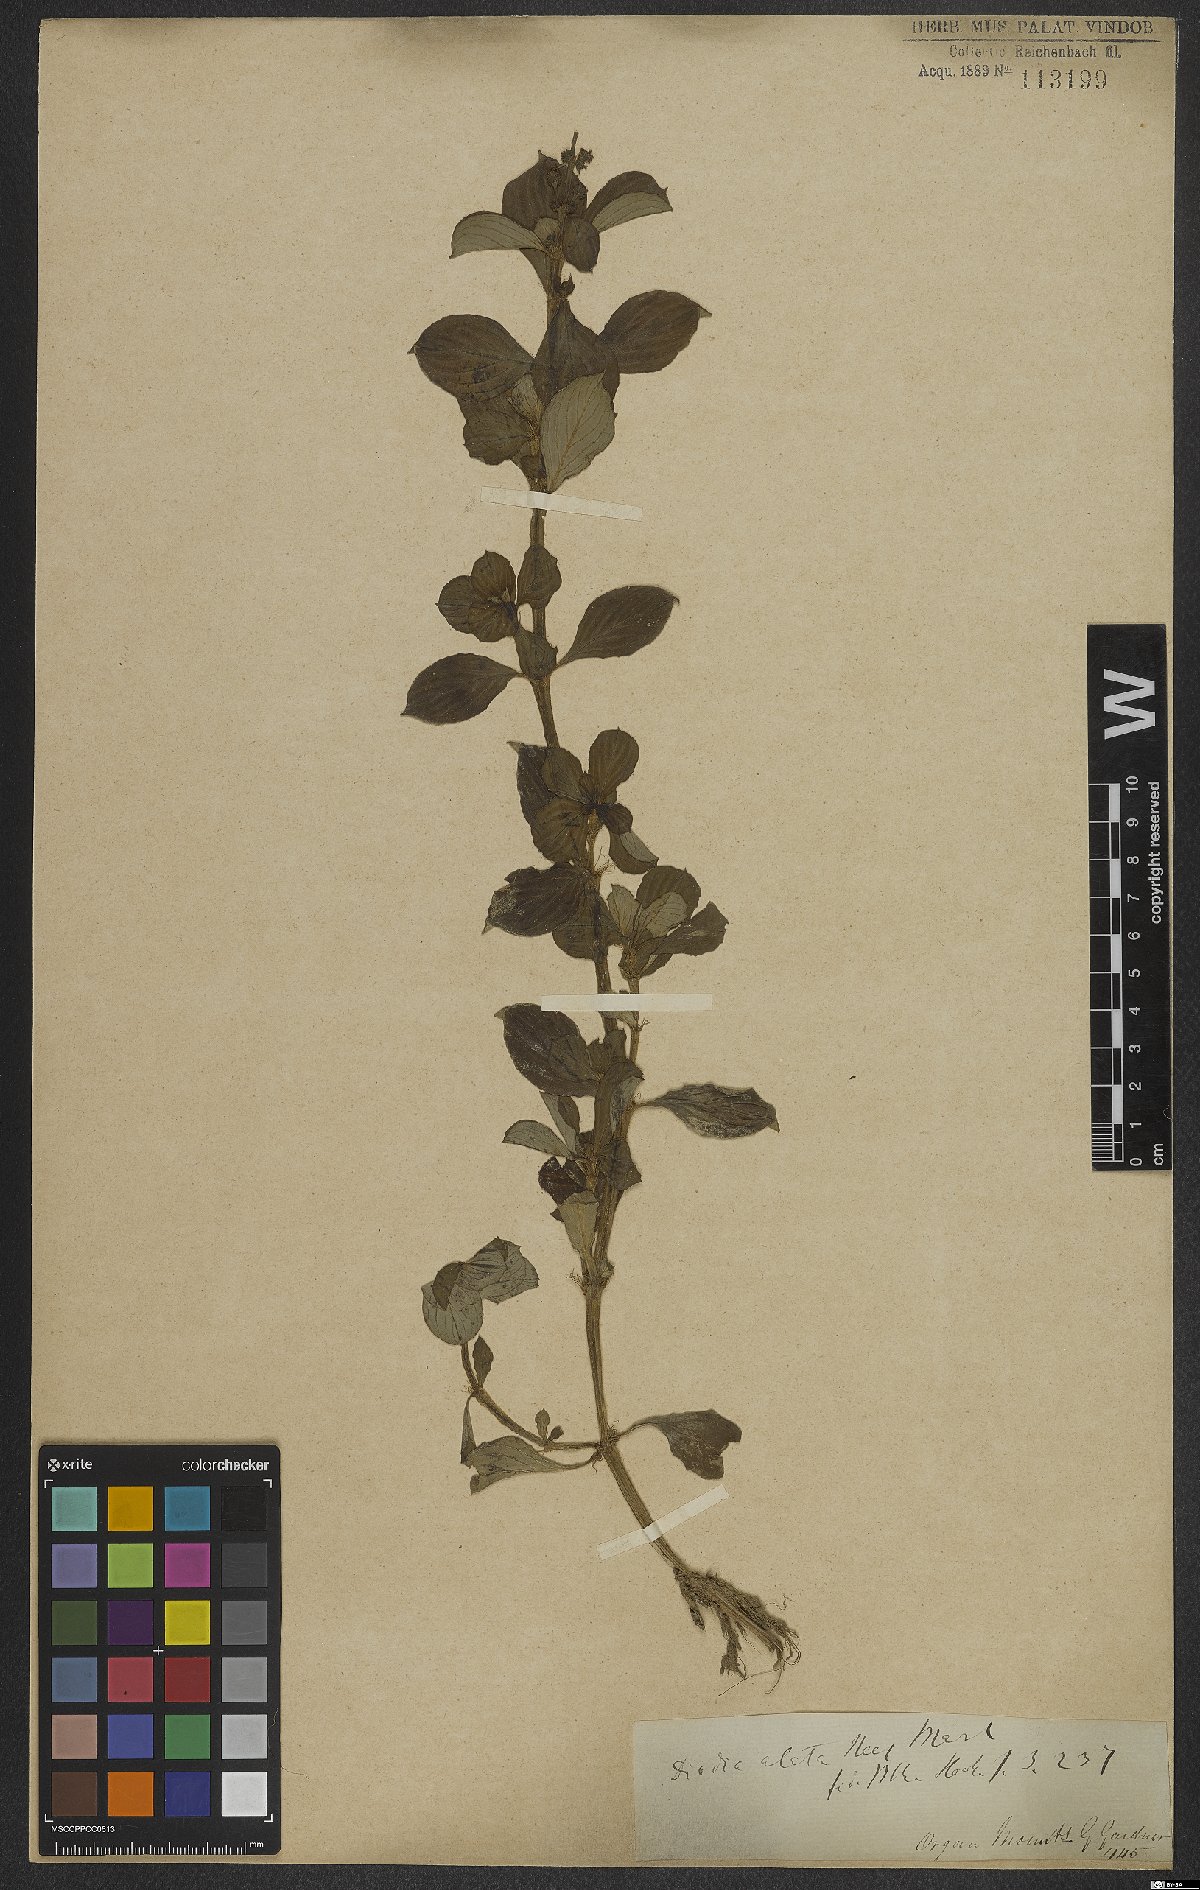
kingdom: Plantae
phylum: Tracheophyta
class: Magnoliopsida
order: Gentianales
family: Rubiaceae
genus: Galianthe
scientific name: Galianthe palustris
